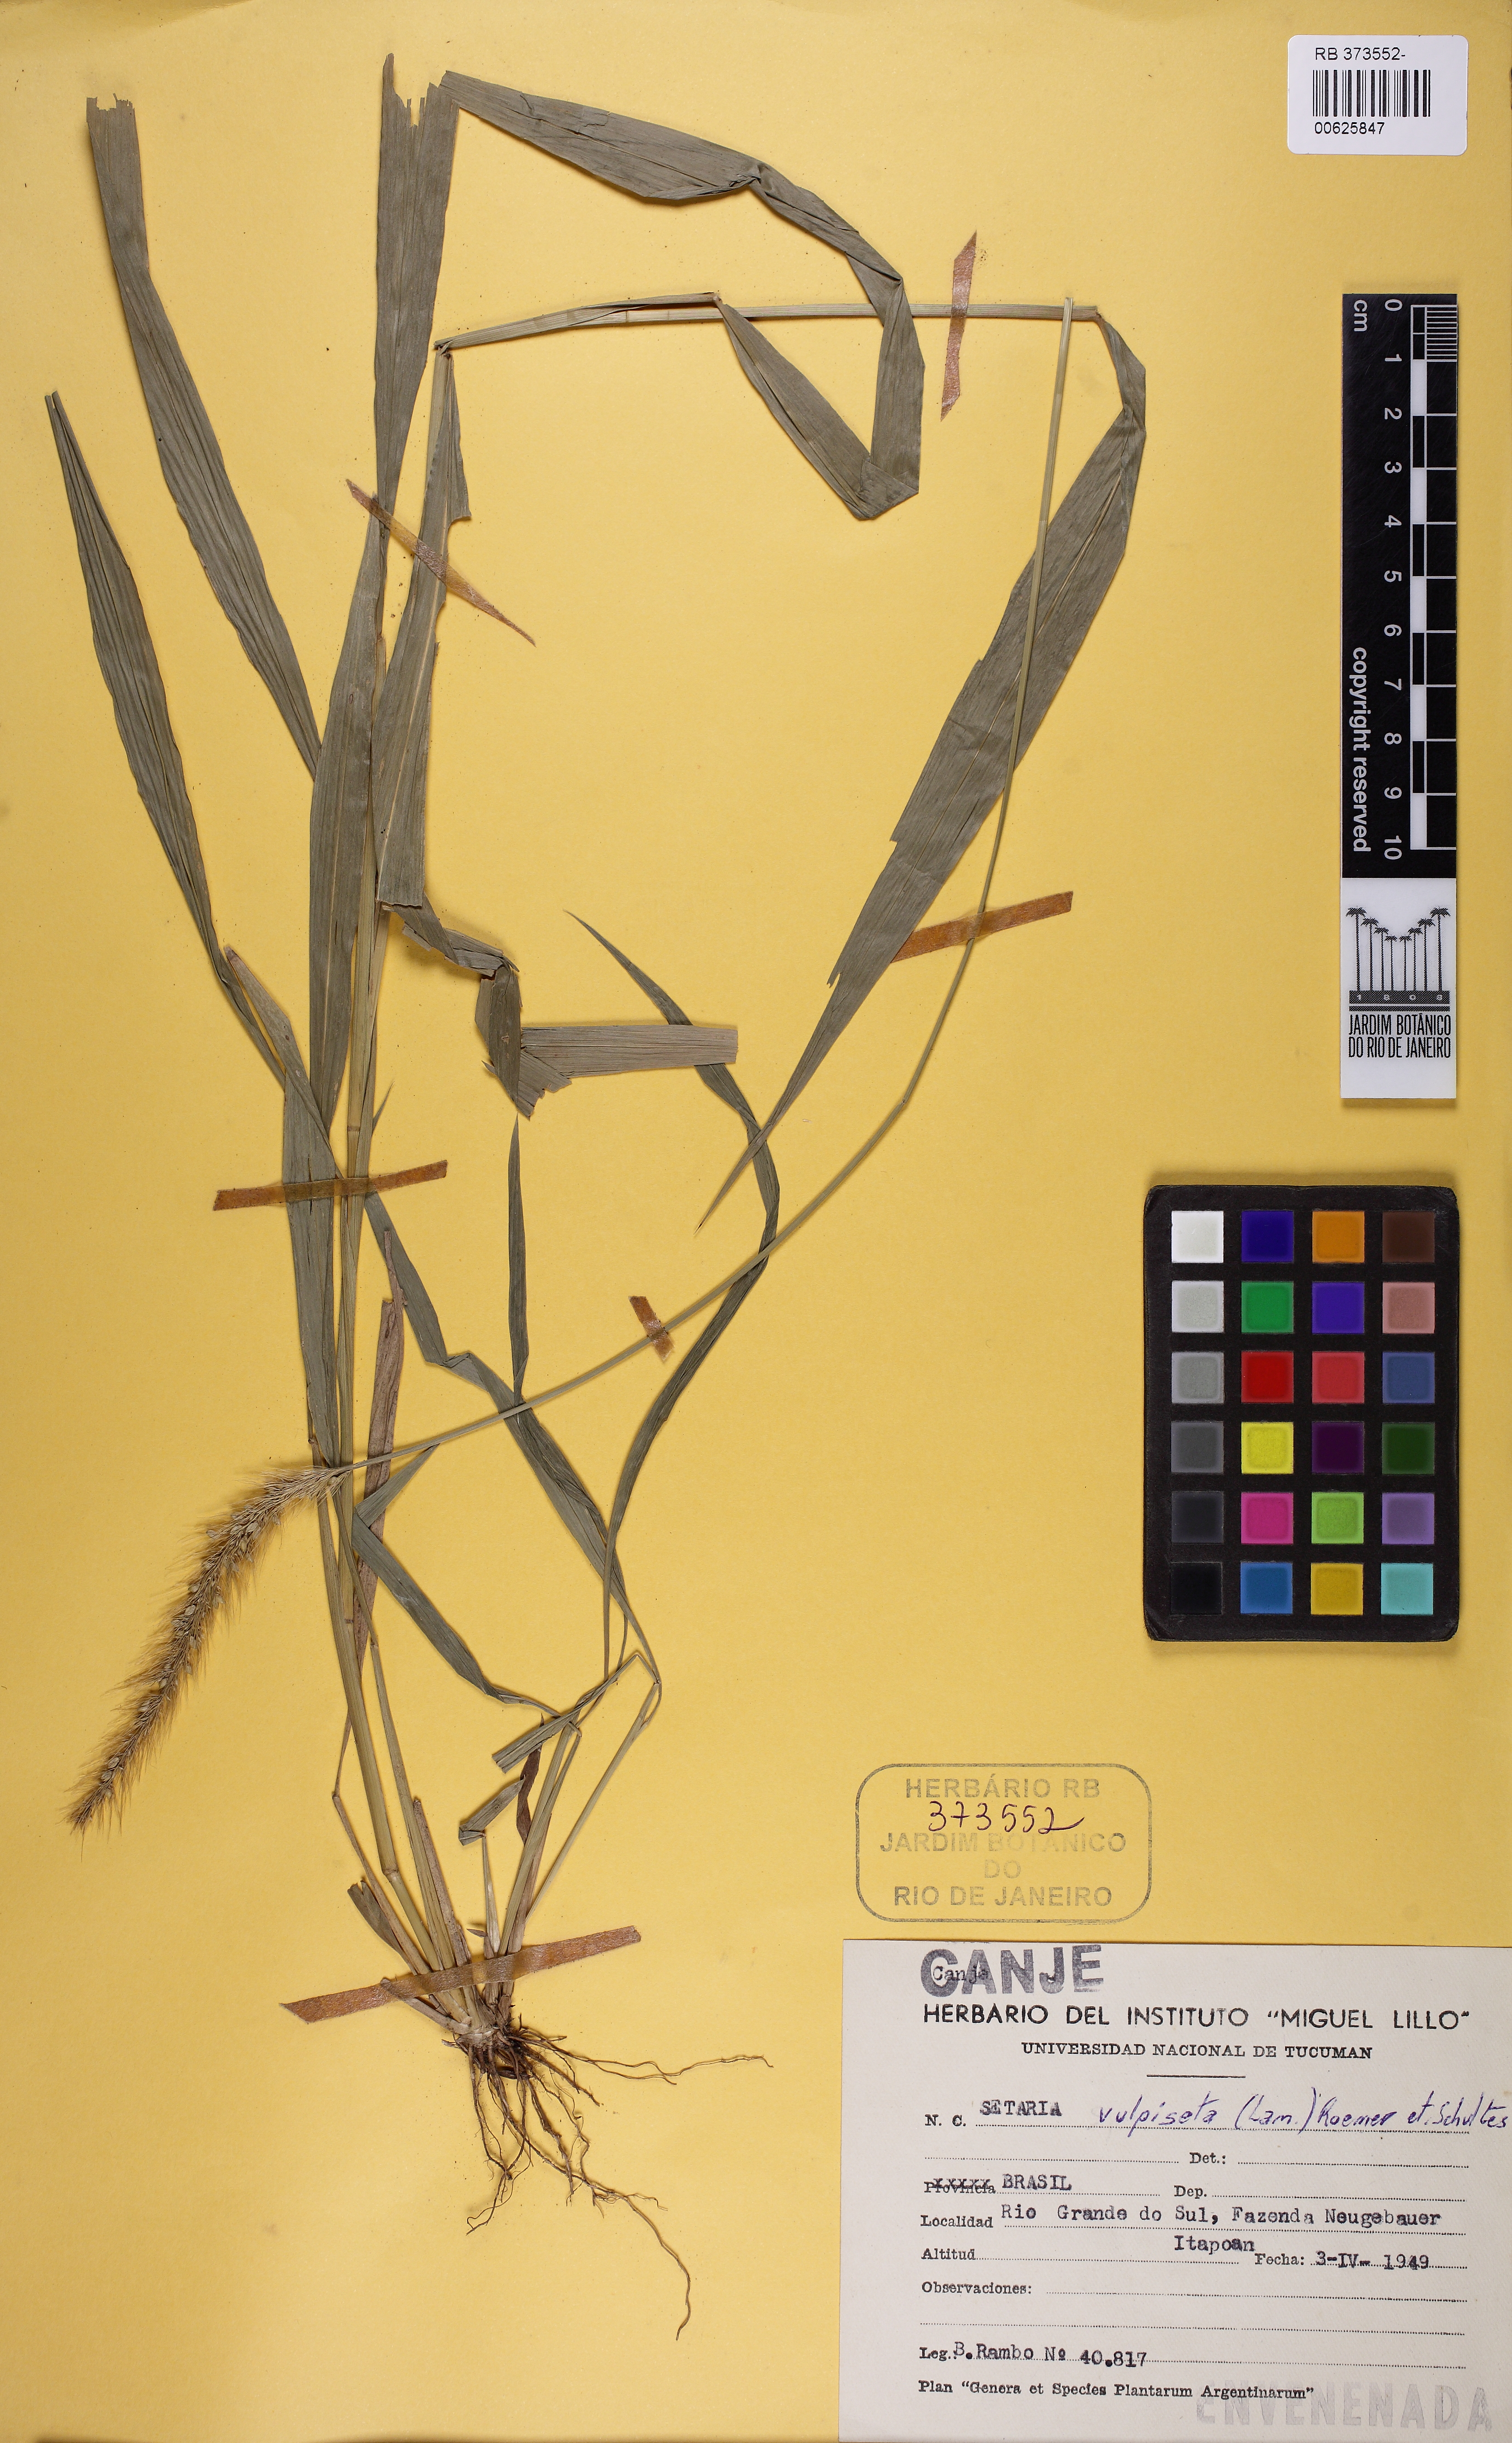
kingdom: Plantae
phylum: Tracheophyta
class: Liliopsida
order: Poales
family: Poaceae
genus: Setaria
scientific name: Setaria vulpiseta
